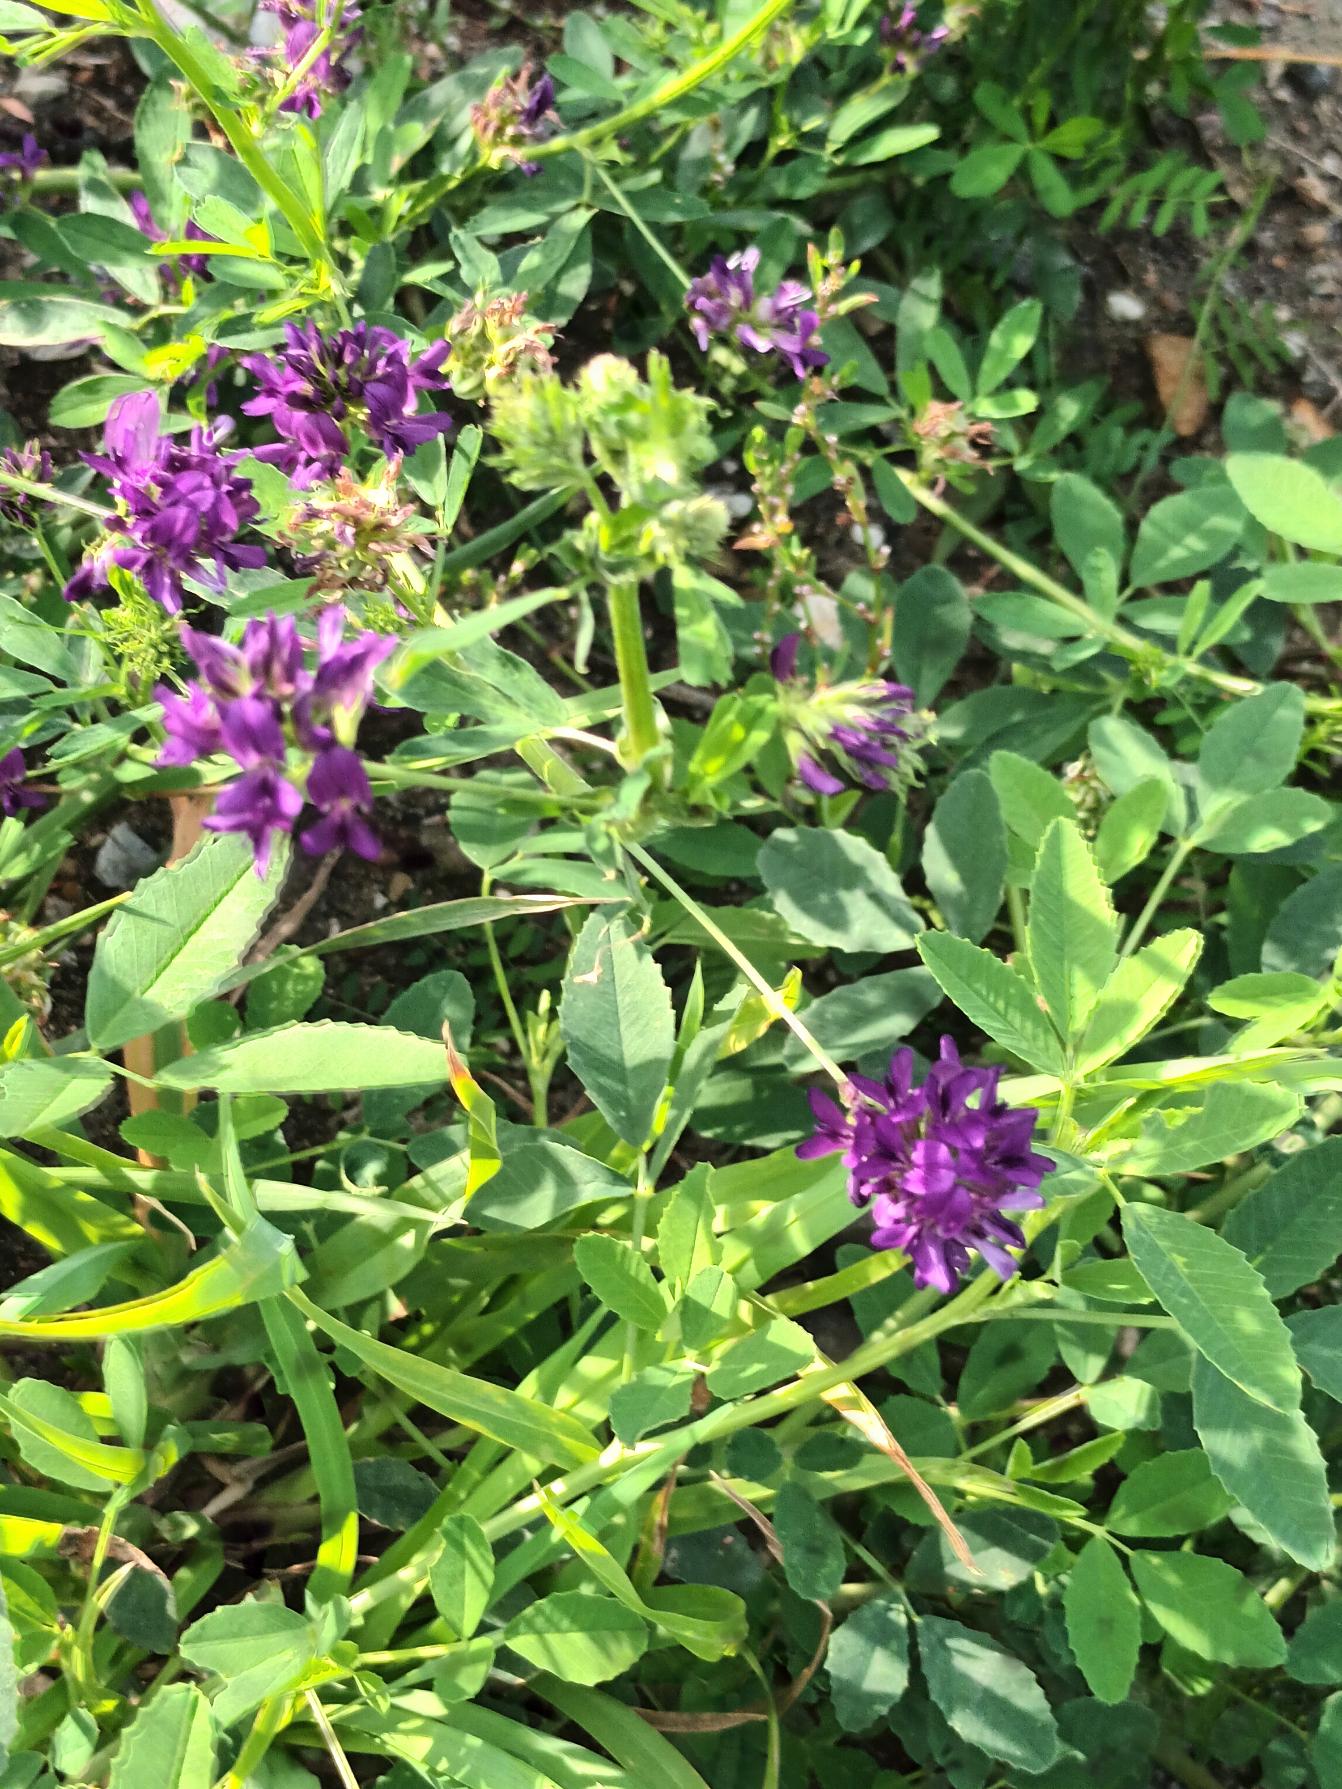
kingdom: Plantae
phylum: Tracheophyta
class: Magnoliopsida
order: Fabales
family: Fabaceae
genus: Medicago
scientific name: Medicago sativa
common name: Lucerne
